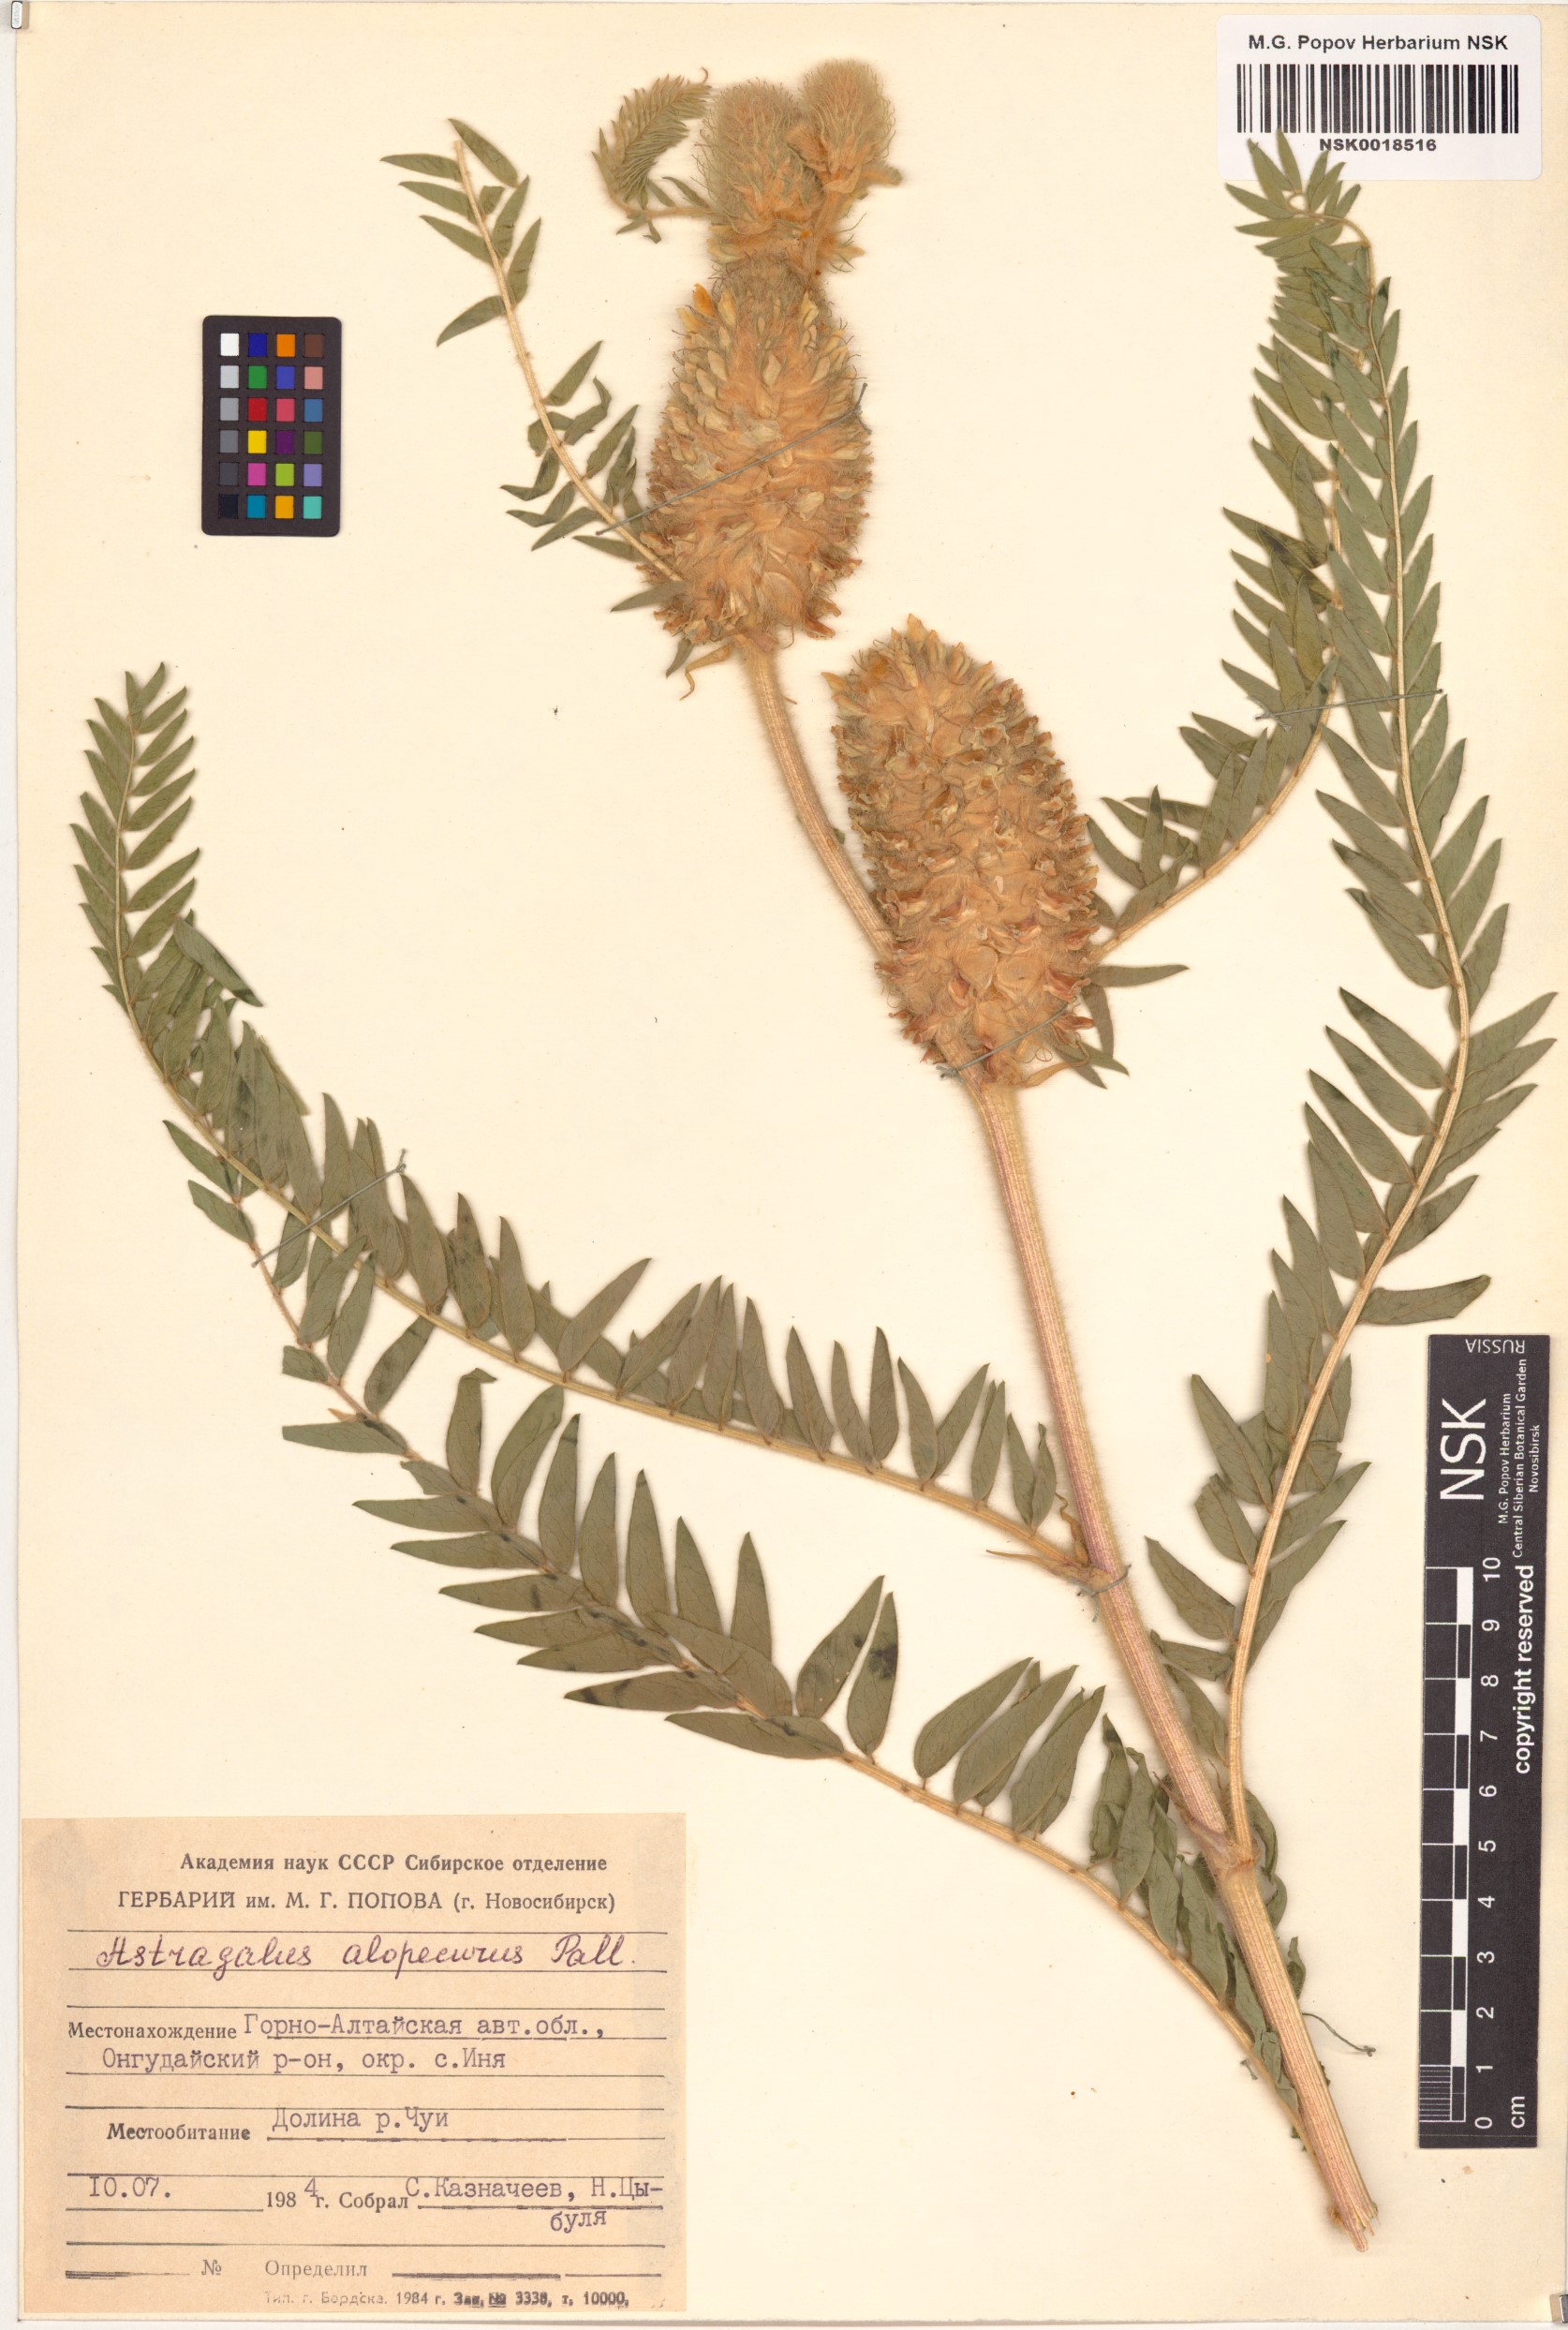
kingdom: Plantae
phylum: Tracheophyta
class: Magnoliopsida
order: Fabales
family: Fabaceae
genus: Astragalus
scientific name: Astragalus alopecurus
